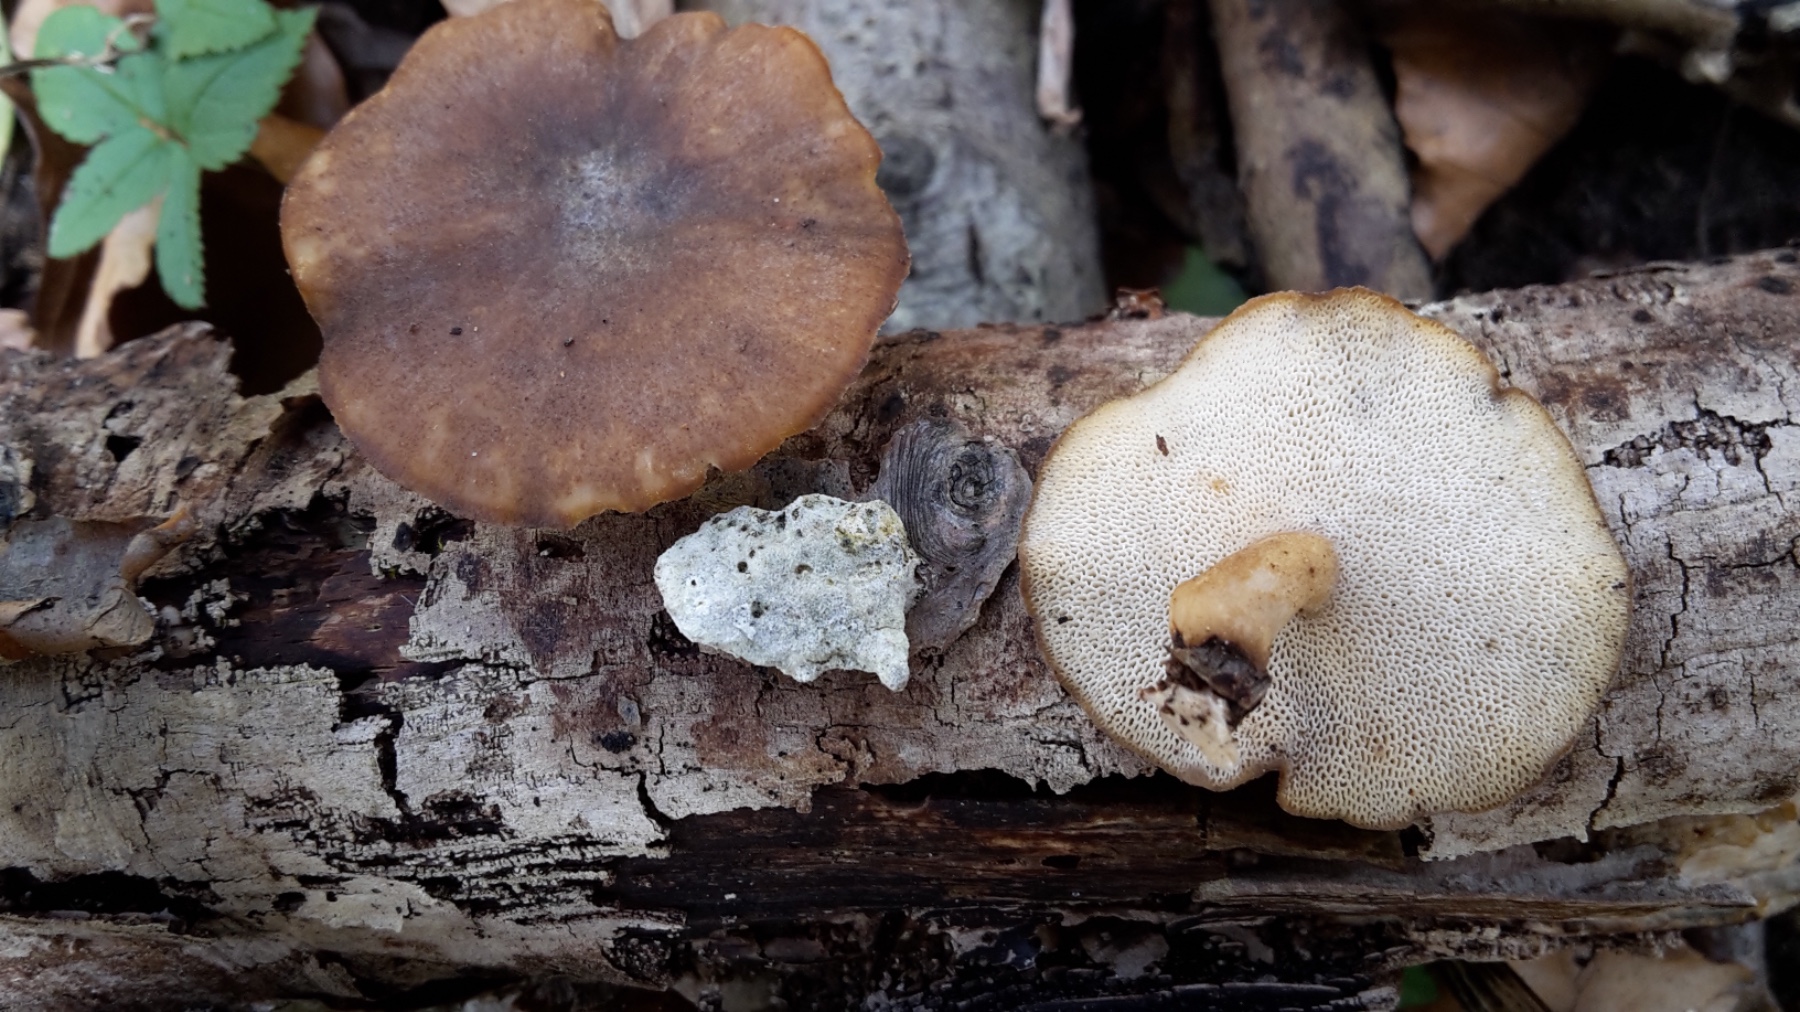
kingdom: Fungi
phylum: Basidiomycota
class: Agaricomycetes
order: Polyporales
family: Polyporaceae
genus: Lentinus
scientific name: Lentinus brumalis
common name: vinter-stilkporesvamp
